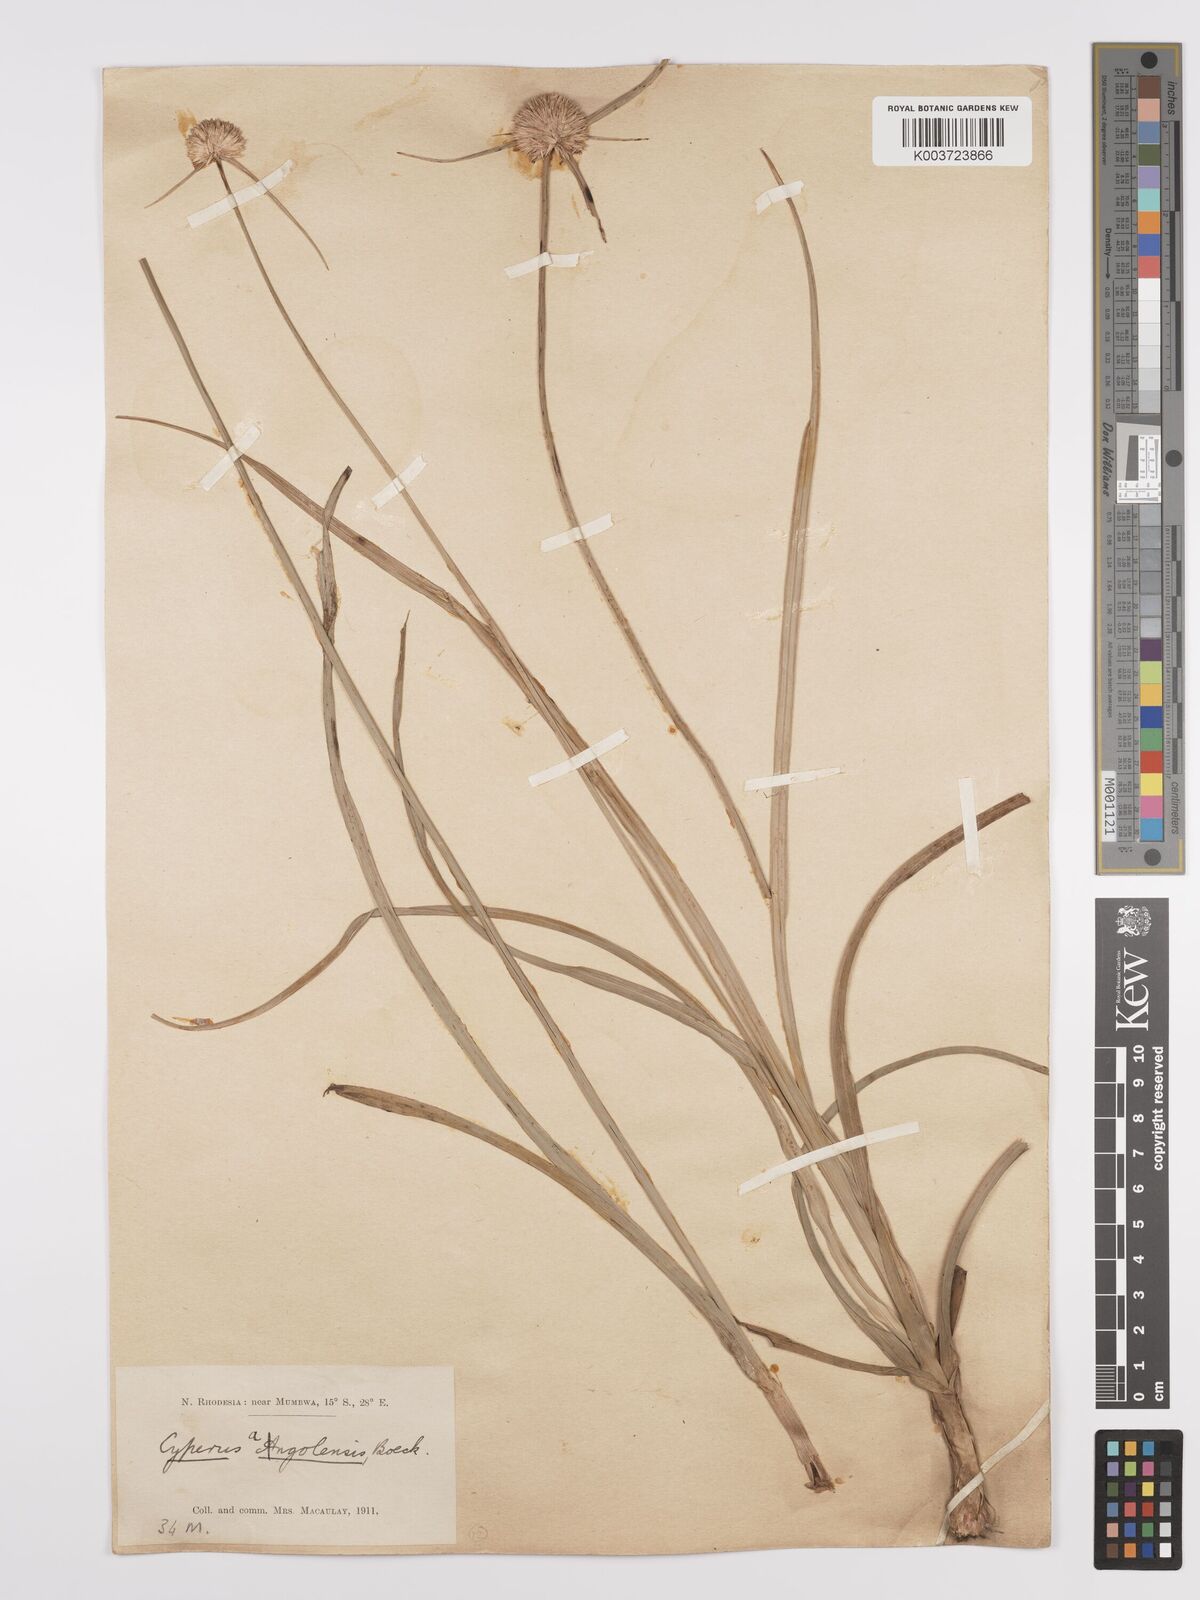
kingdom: Plantae
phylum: Tracheophyta
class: Liliopsida
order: Poales
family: Cyperaceae
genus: Cyperus
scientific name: Cyperus angolensis
